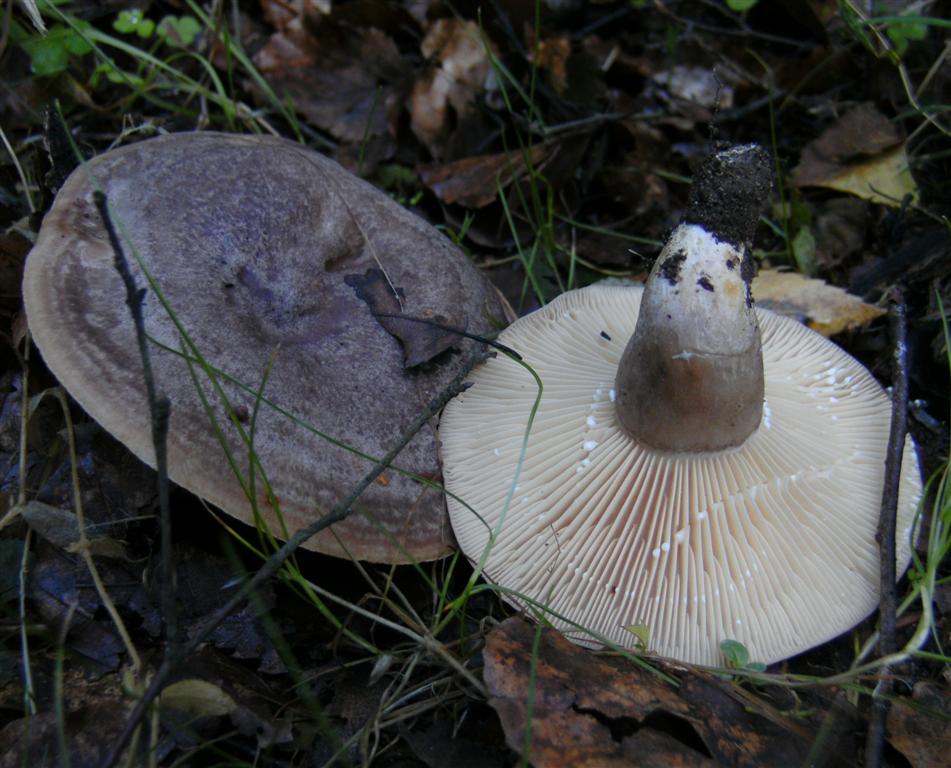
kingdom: Fungi
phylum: Basidiomycota
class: Agaricomycetes
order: Russulales
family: Russulaceae
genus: Lactarius
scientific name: Lactarius flexuosus
